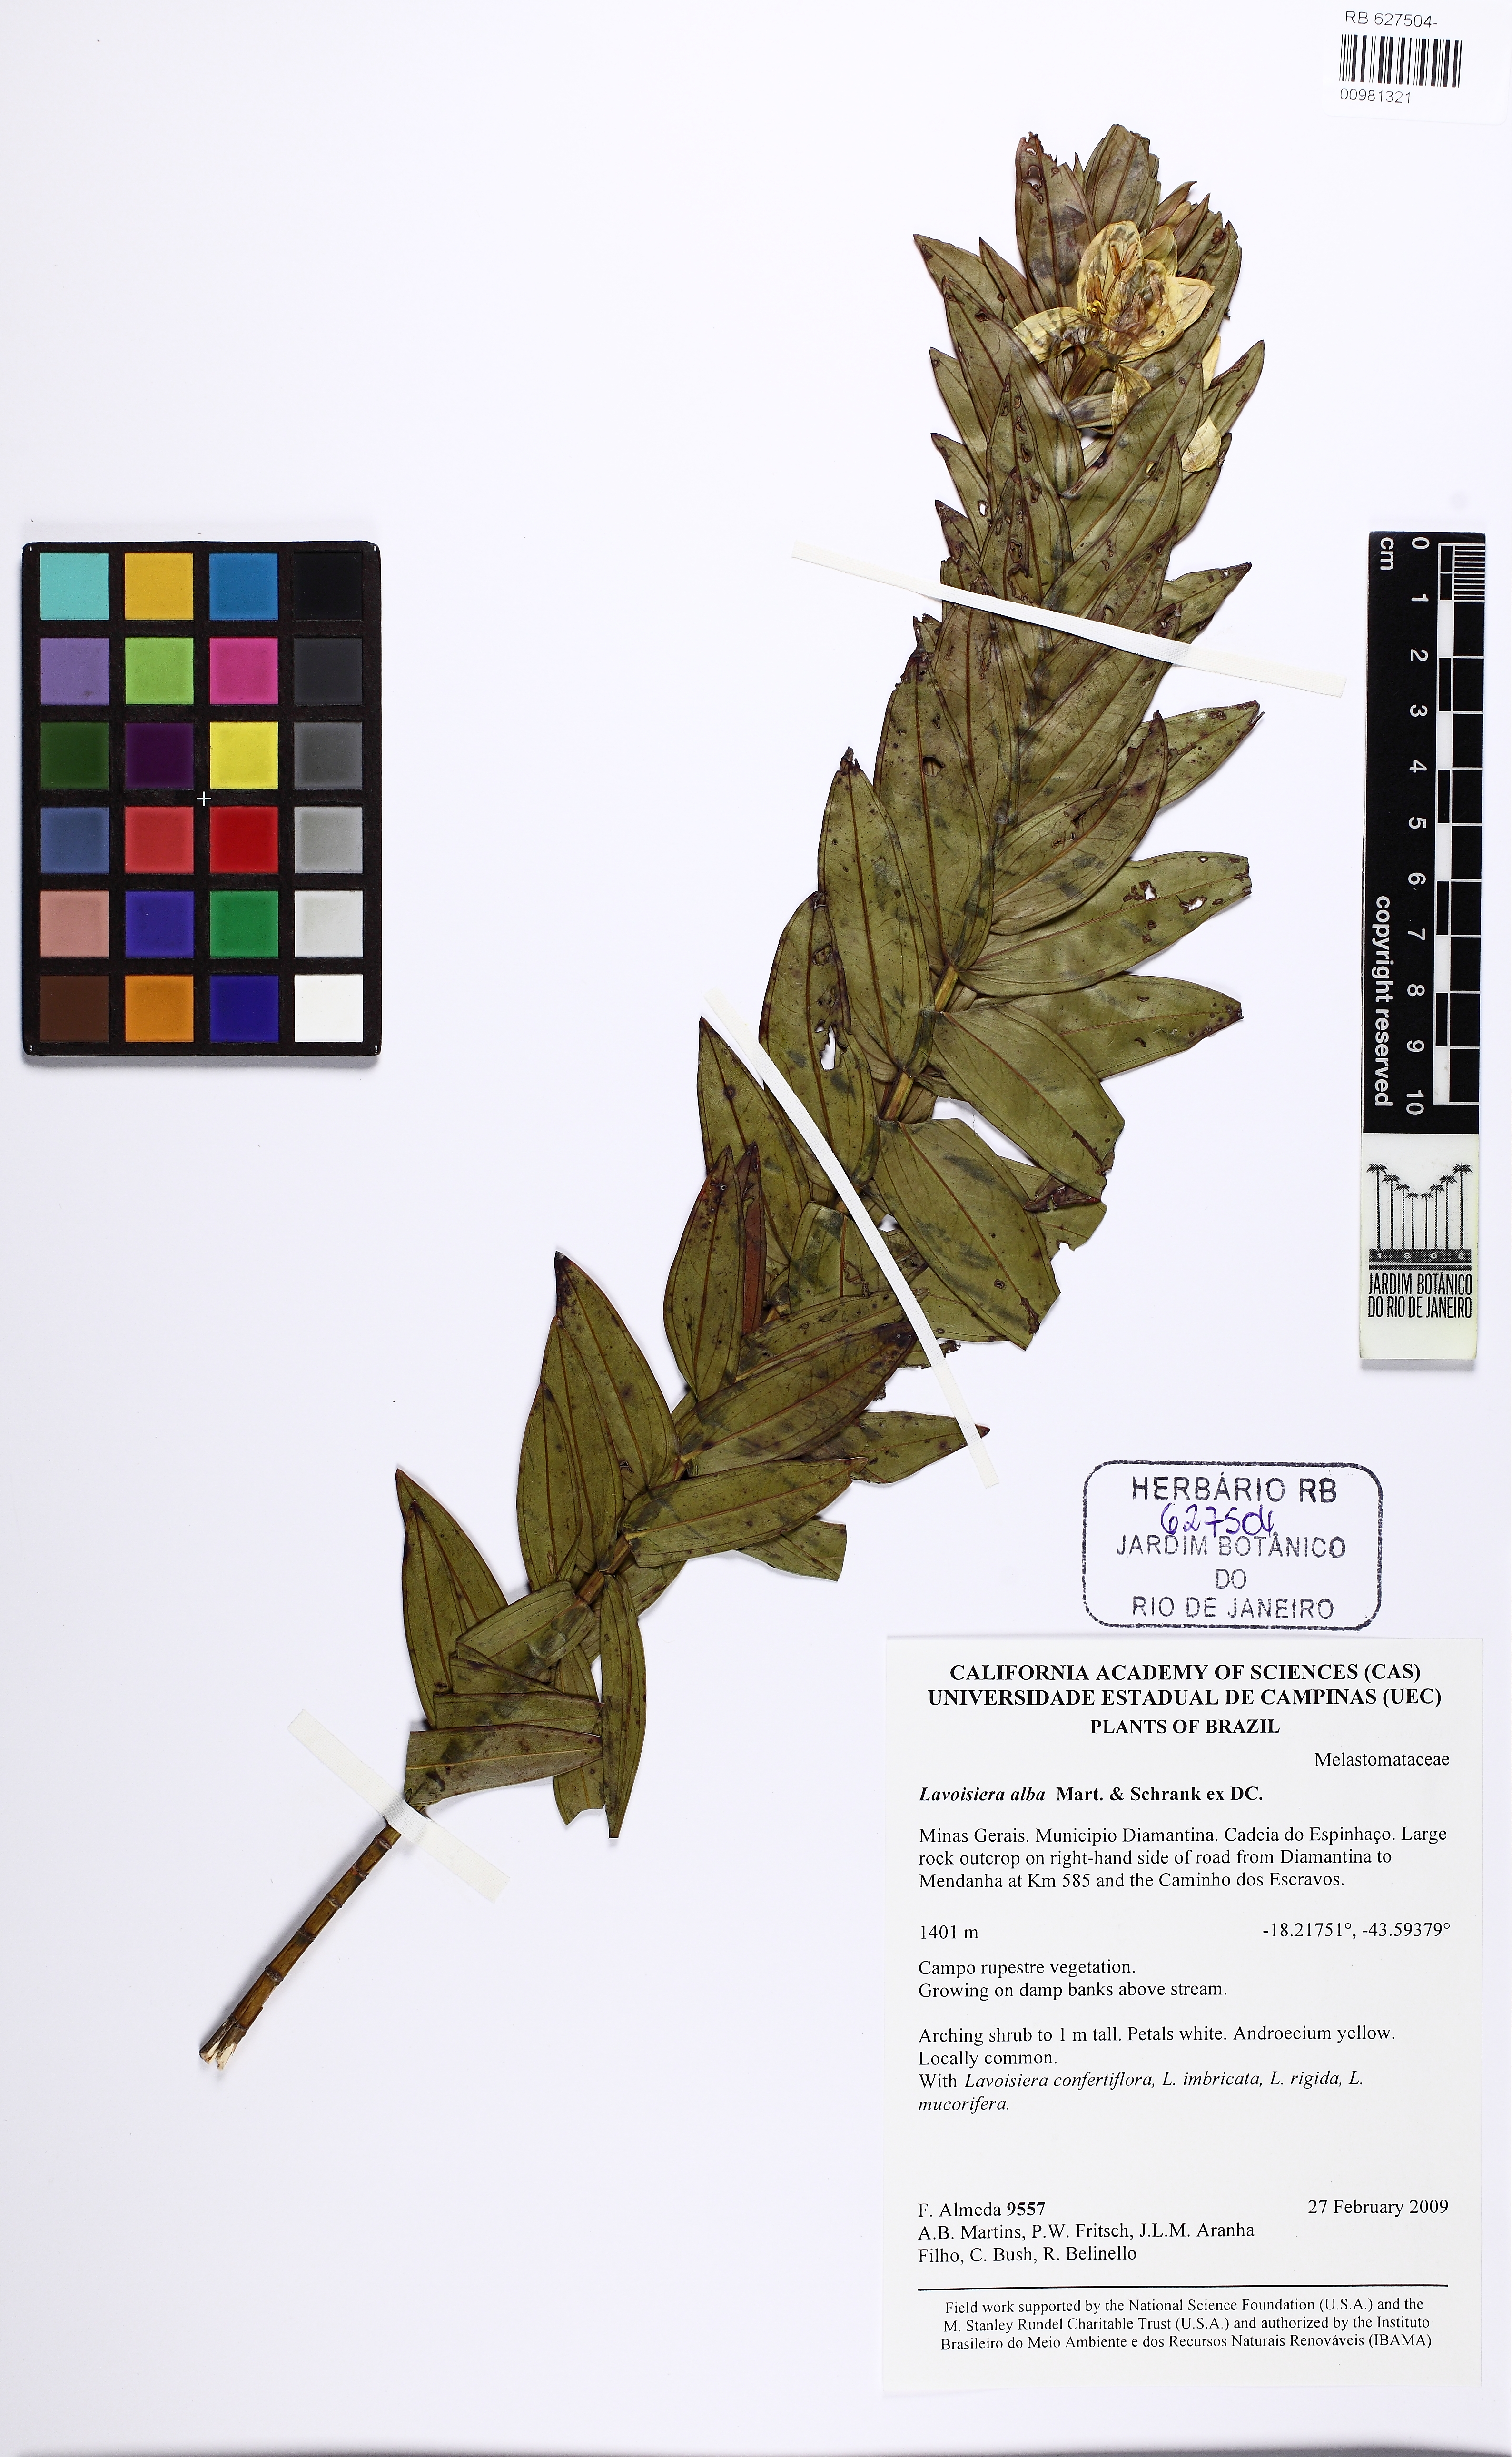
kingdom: Plantae
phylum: Tracheophyta
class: Magnoliopsida
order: Myrtales
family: Melastomataceae
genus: Microlicia
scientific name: Microlicia alba
